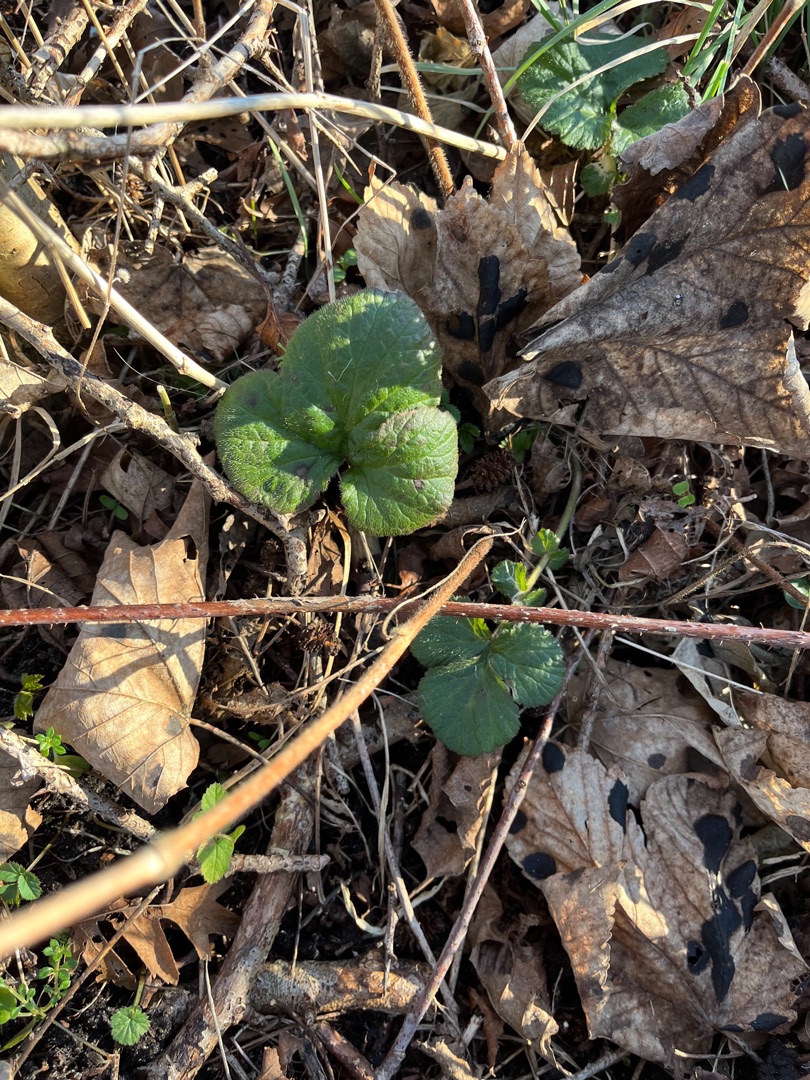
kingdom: Plantae
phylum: Tracheophyta
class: Magnoliopsida
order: Rosales
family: Rosaceae
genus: Geum
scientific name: Geum urbanum
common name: Feber-nellikerod
